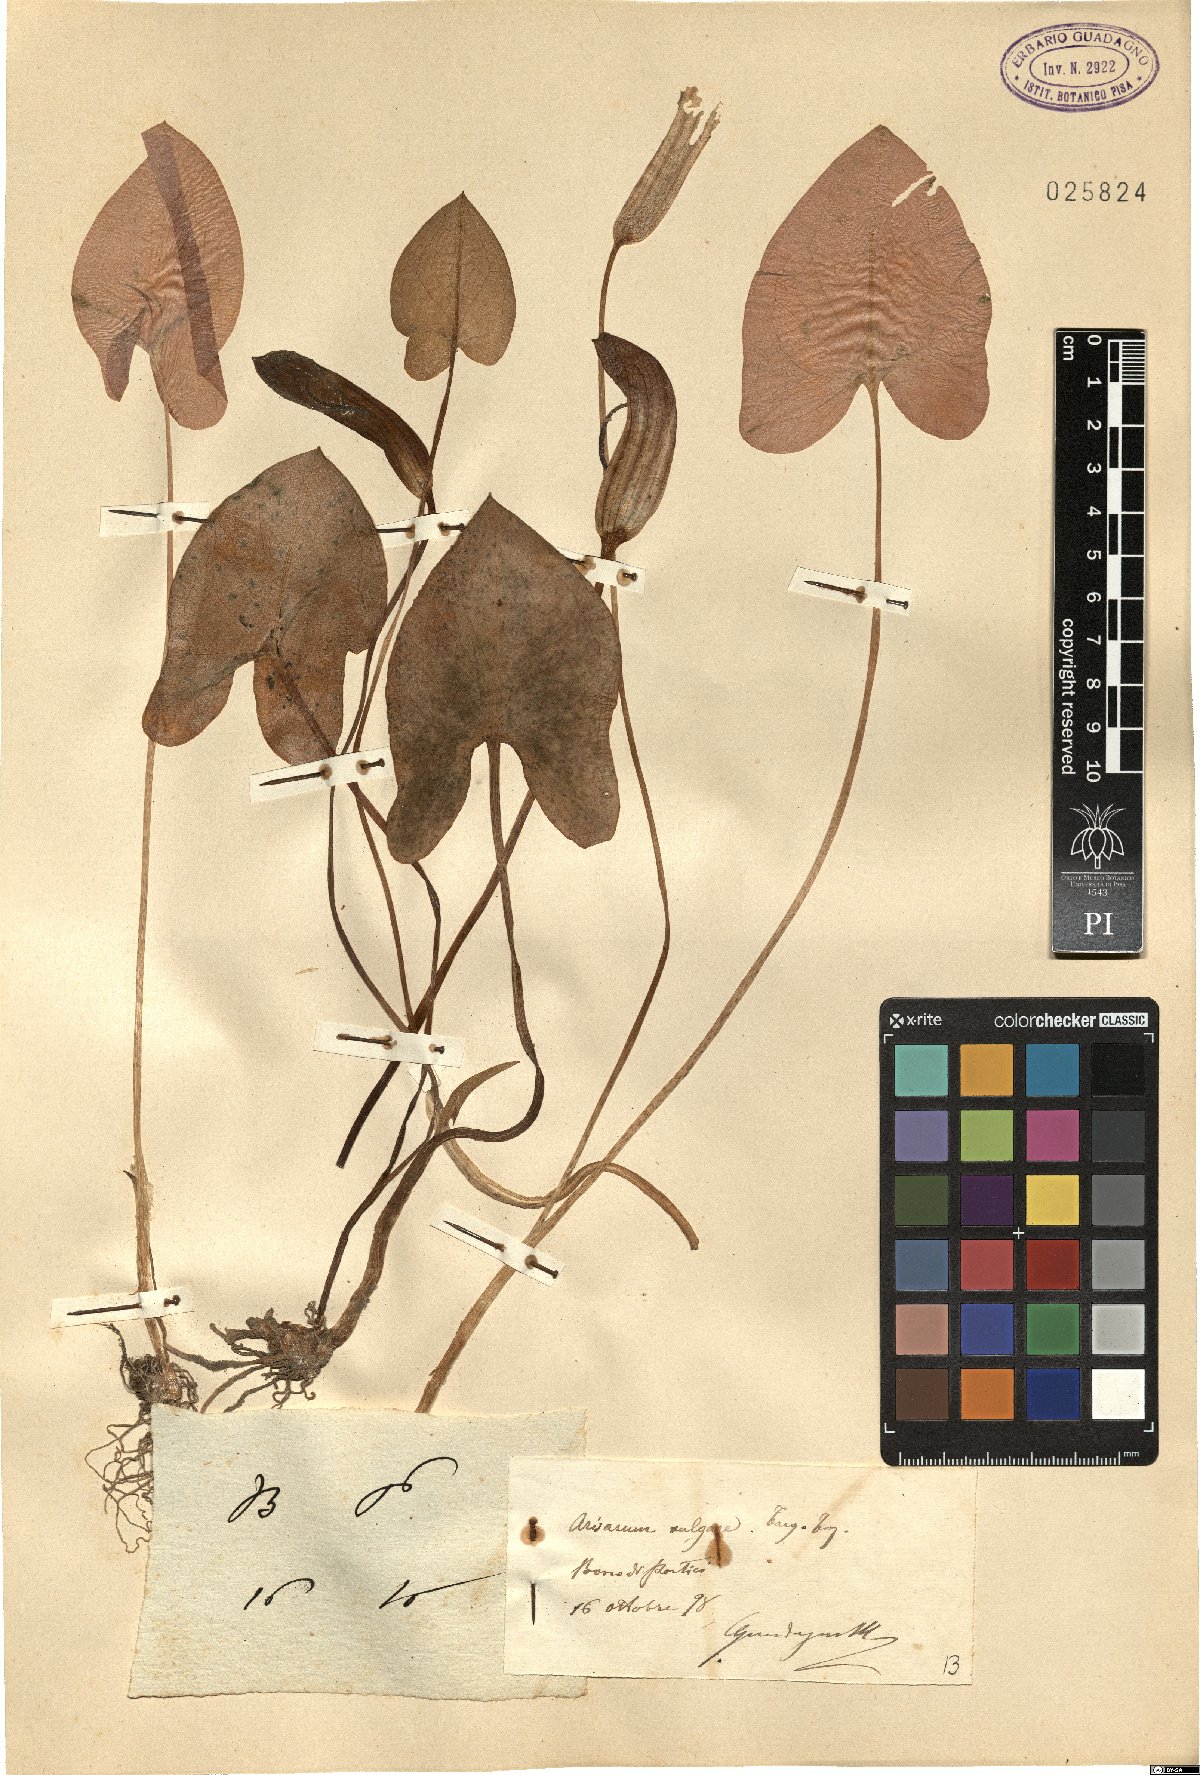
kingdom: Plantae
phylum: Tracheophyta
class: Liliopsida
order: Alismatales
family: Araceae
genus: Arisarum
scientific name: Arisarum vulgare
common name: Common arisarum
